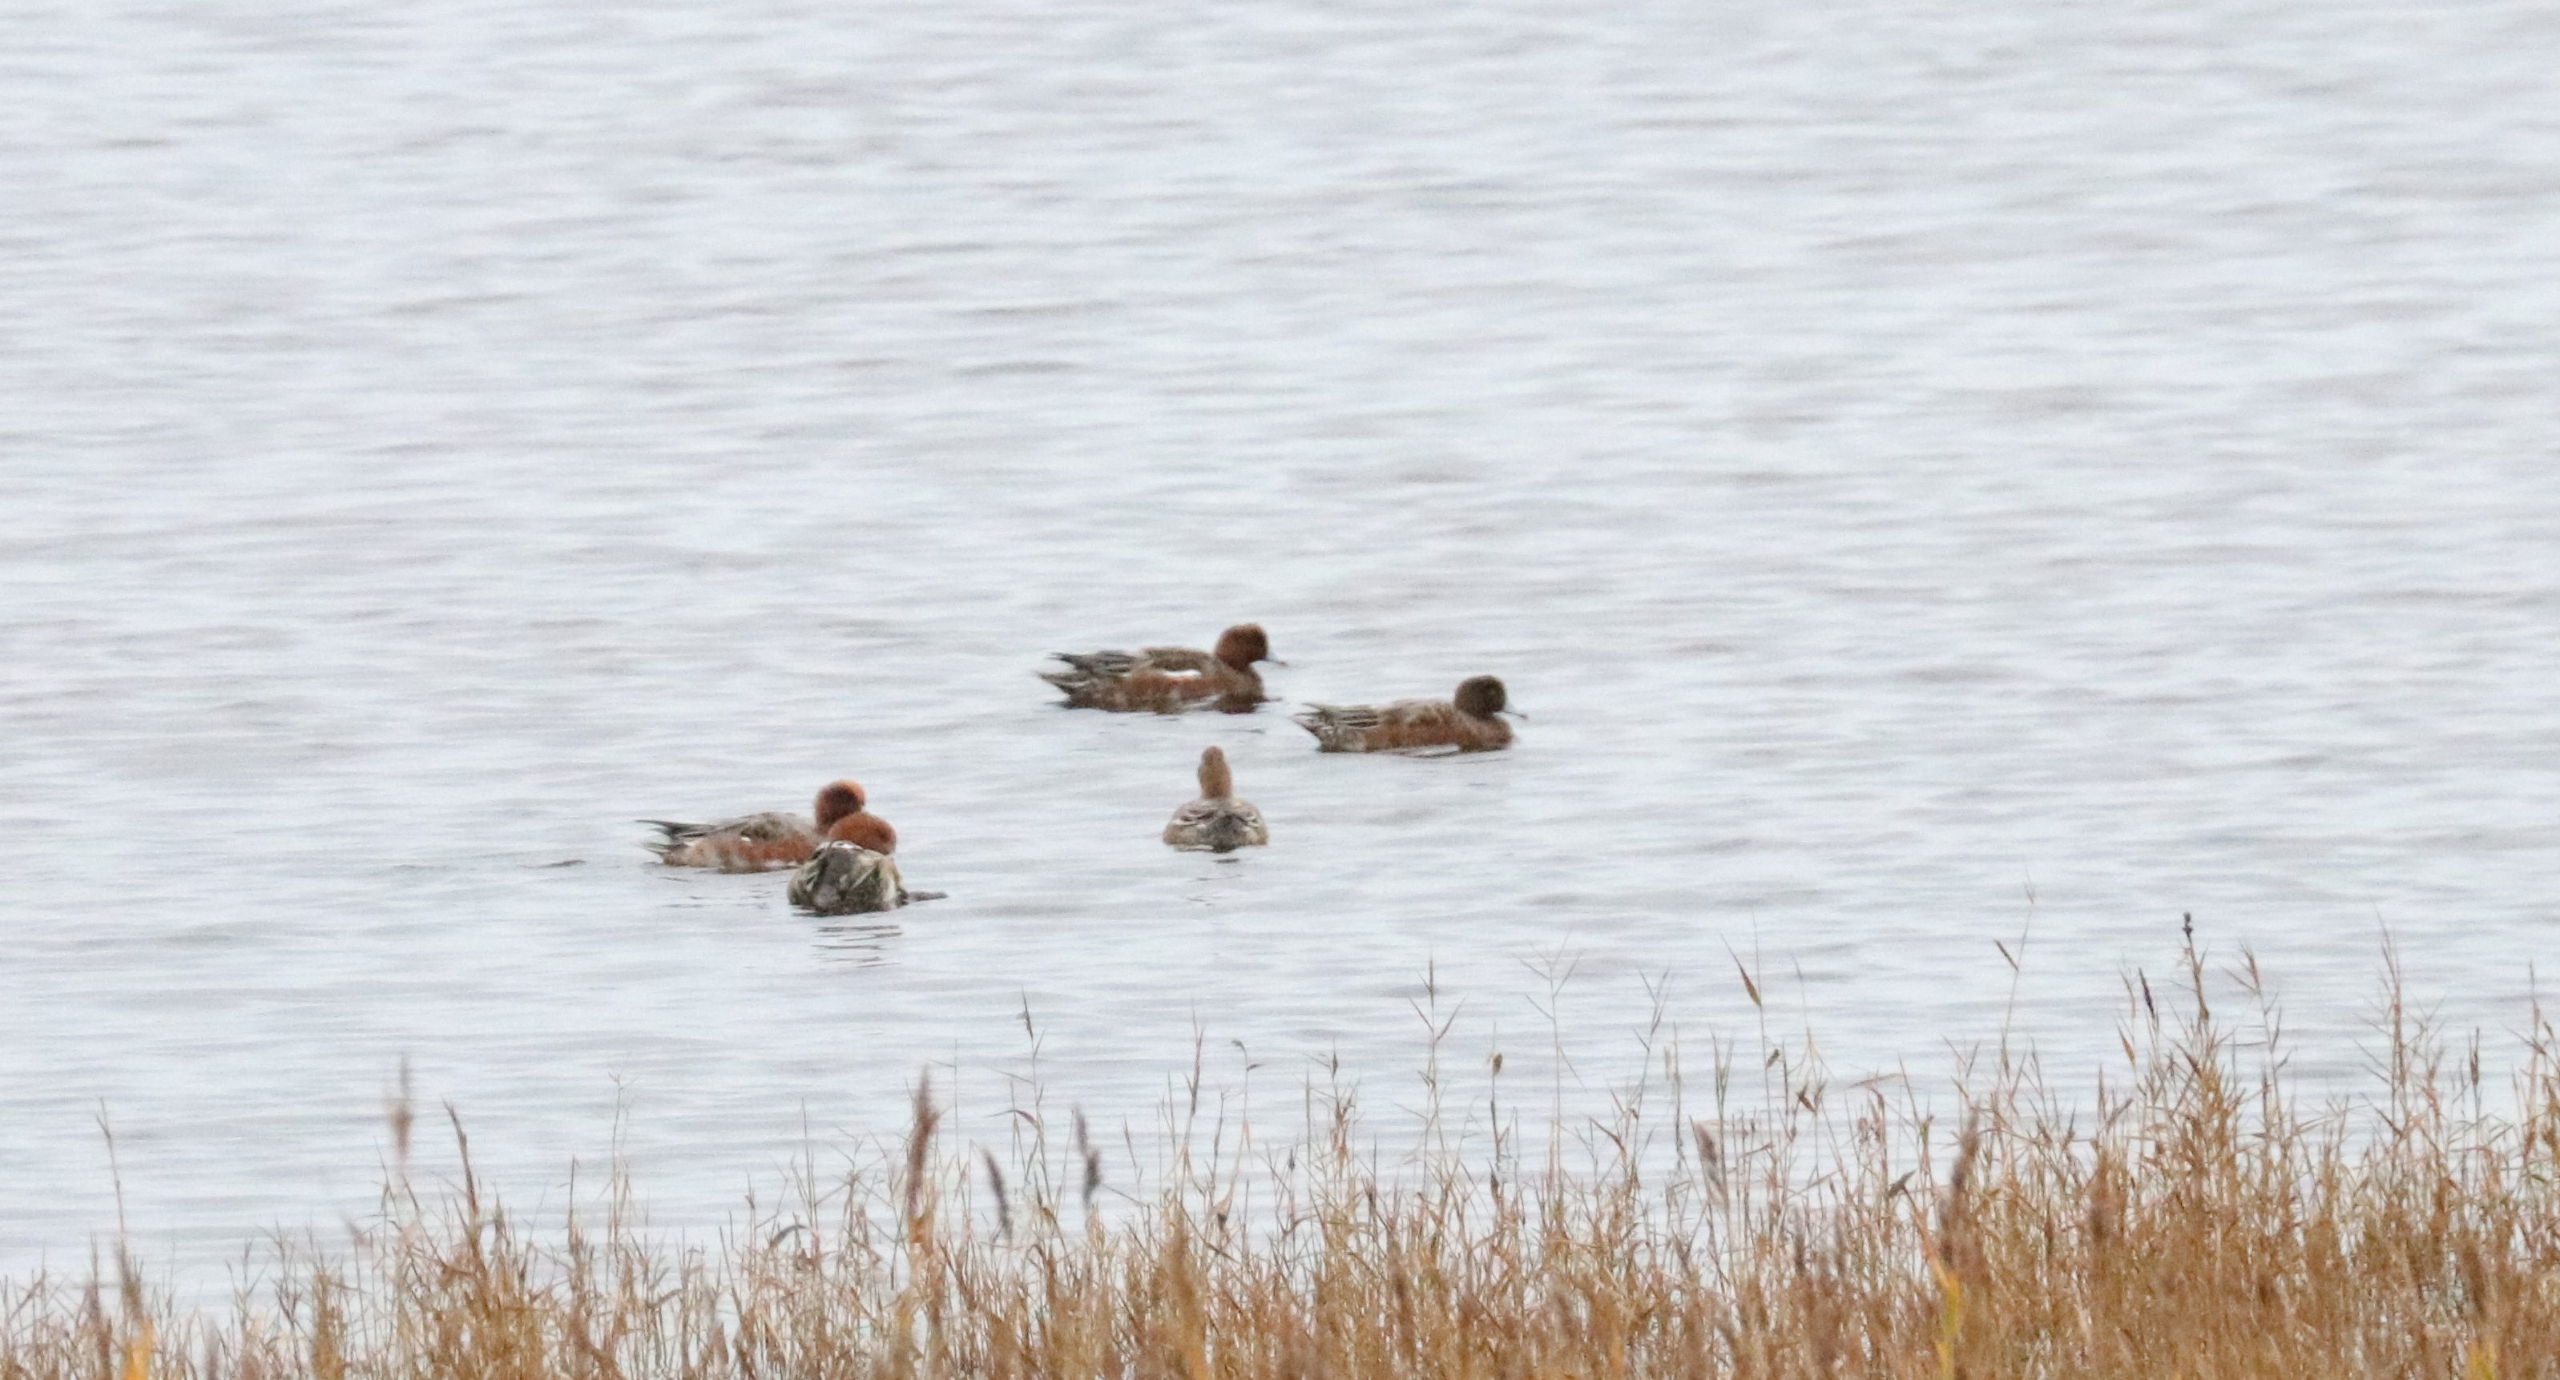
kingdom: Animalia
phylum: Chordata
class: Aves
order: Anseriformes
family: Anatidae
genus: Mareca
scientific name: Mareca penelope
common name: Pibeand
